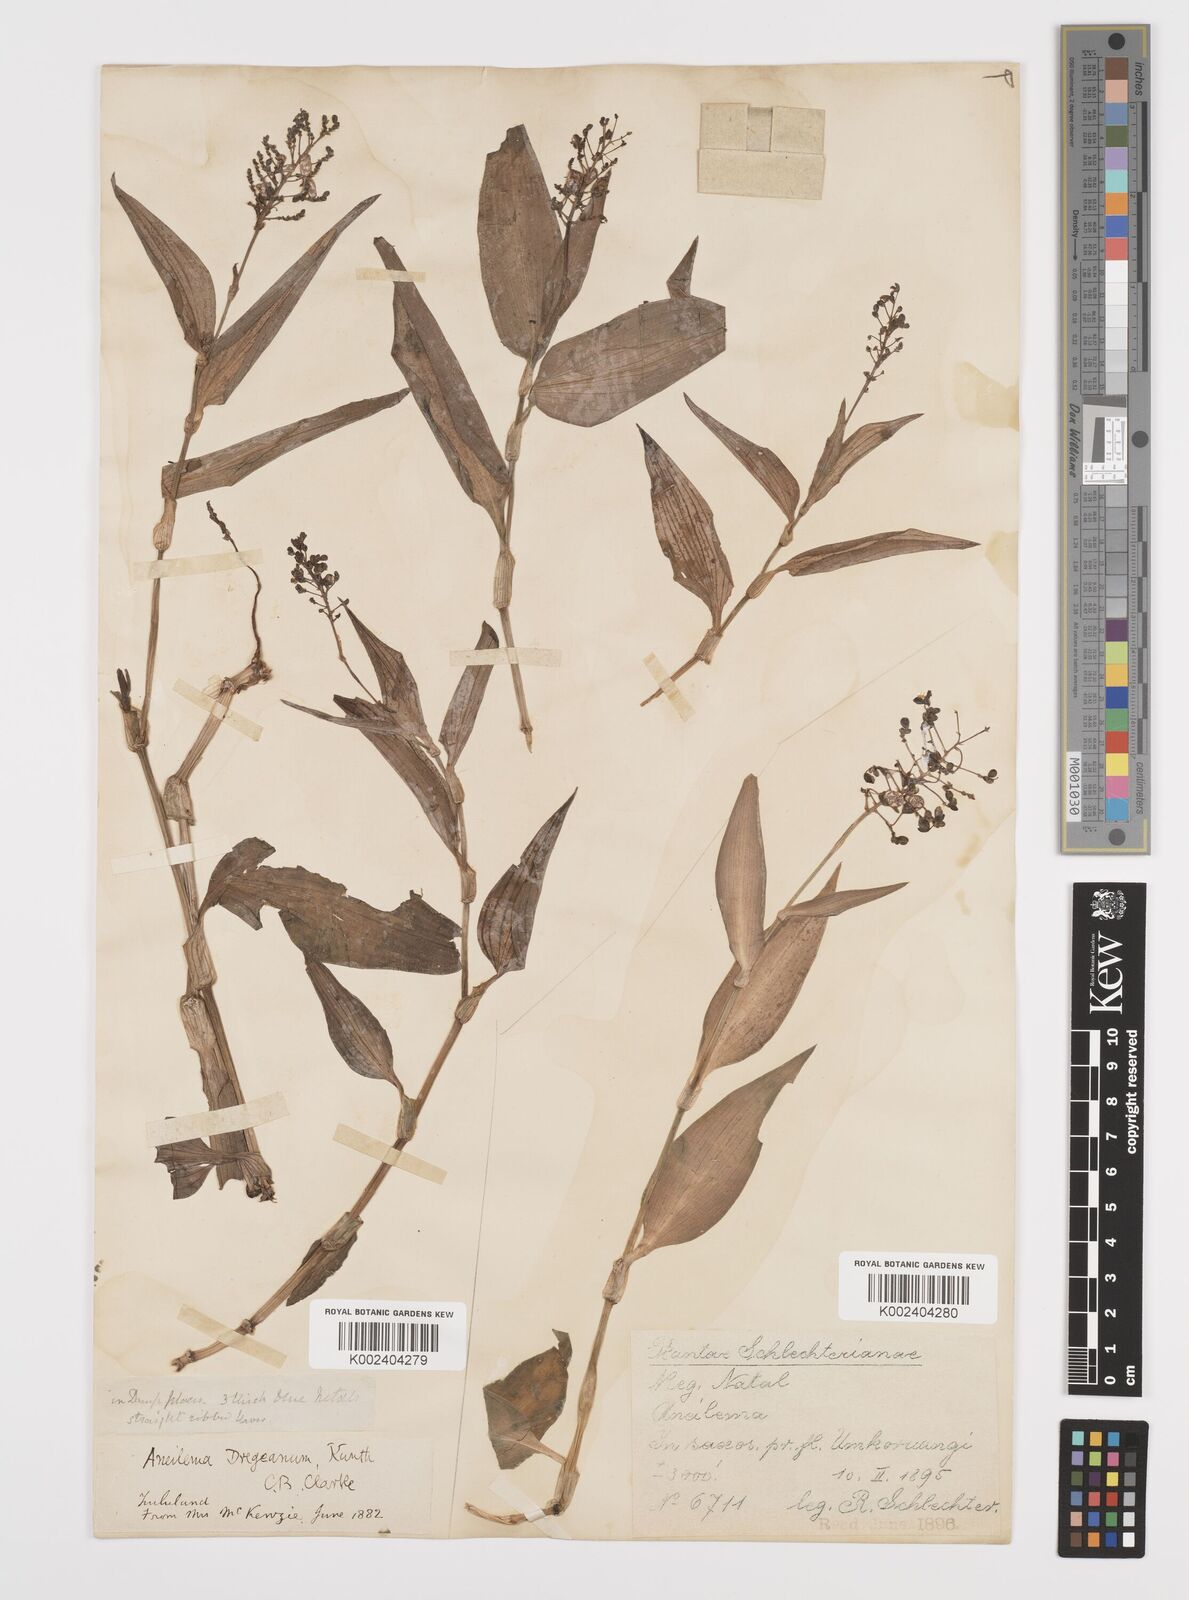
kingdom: Plantae
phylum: Tracheophyta
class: Liliopsida
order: Commelinales
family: Commelinaceae
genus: Aneilema
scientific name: Aneilema dregeanum
